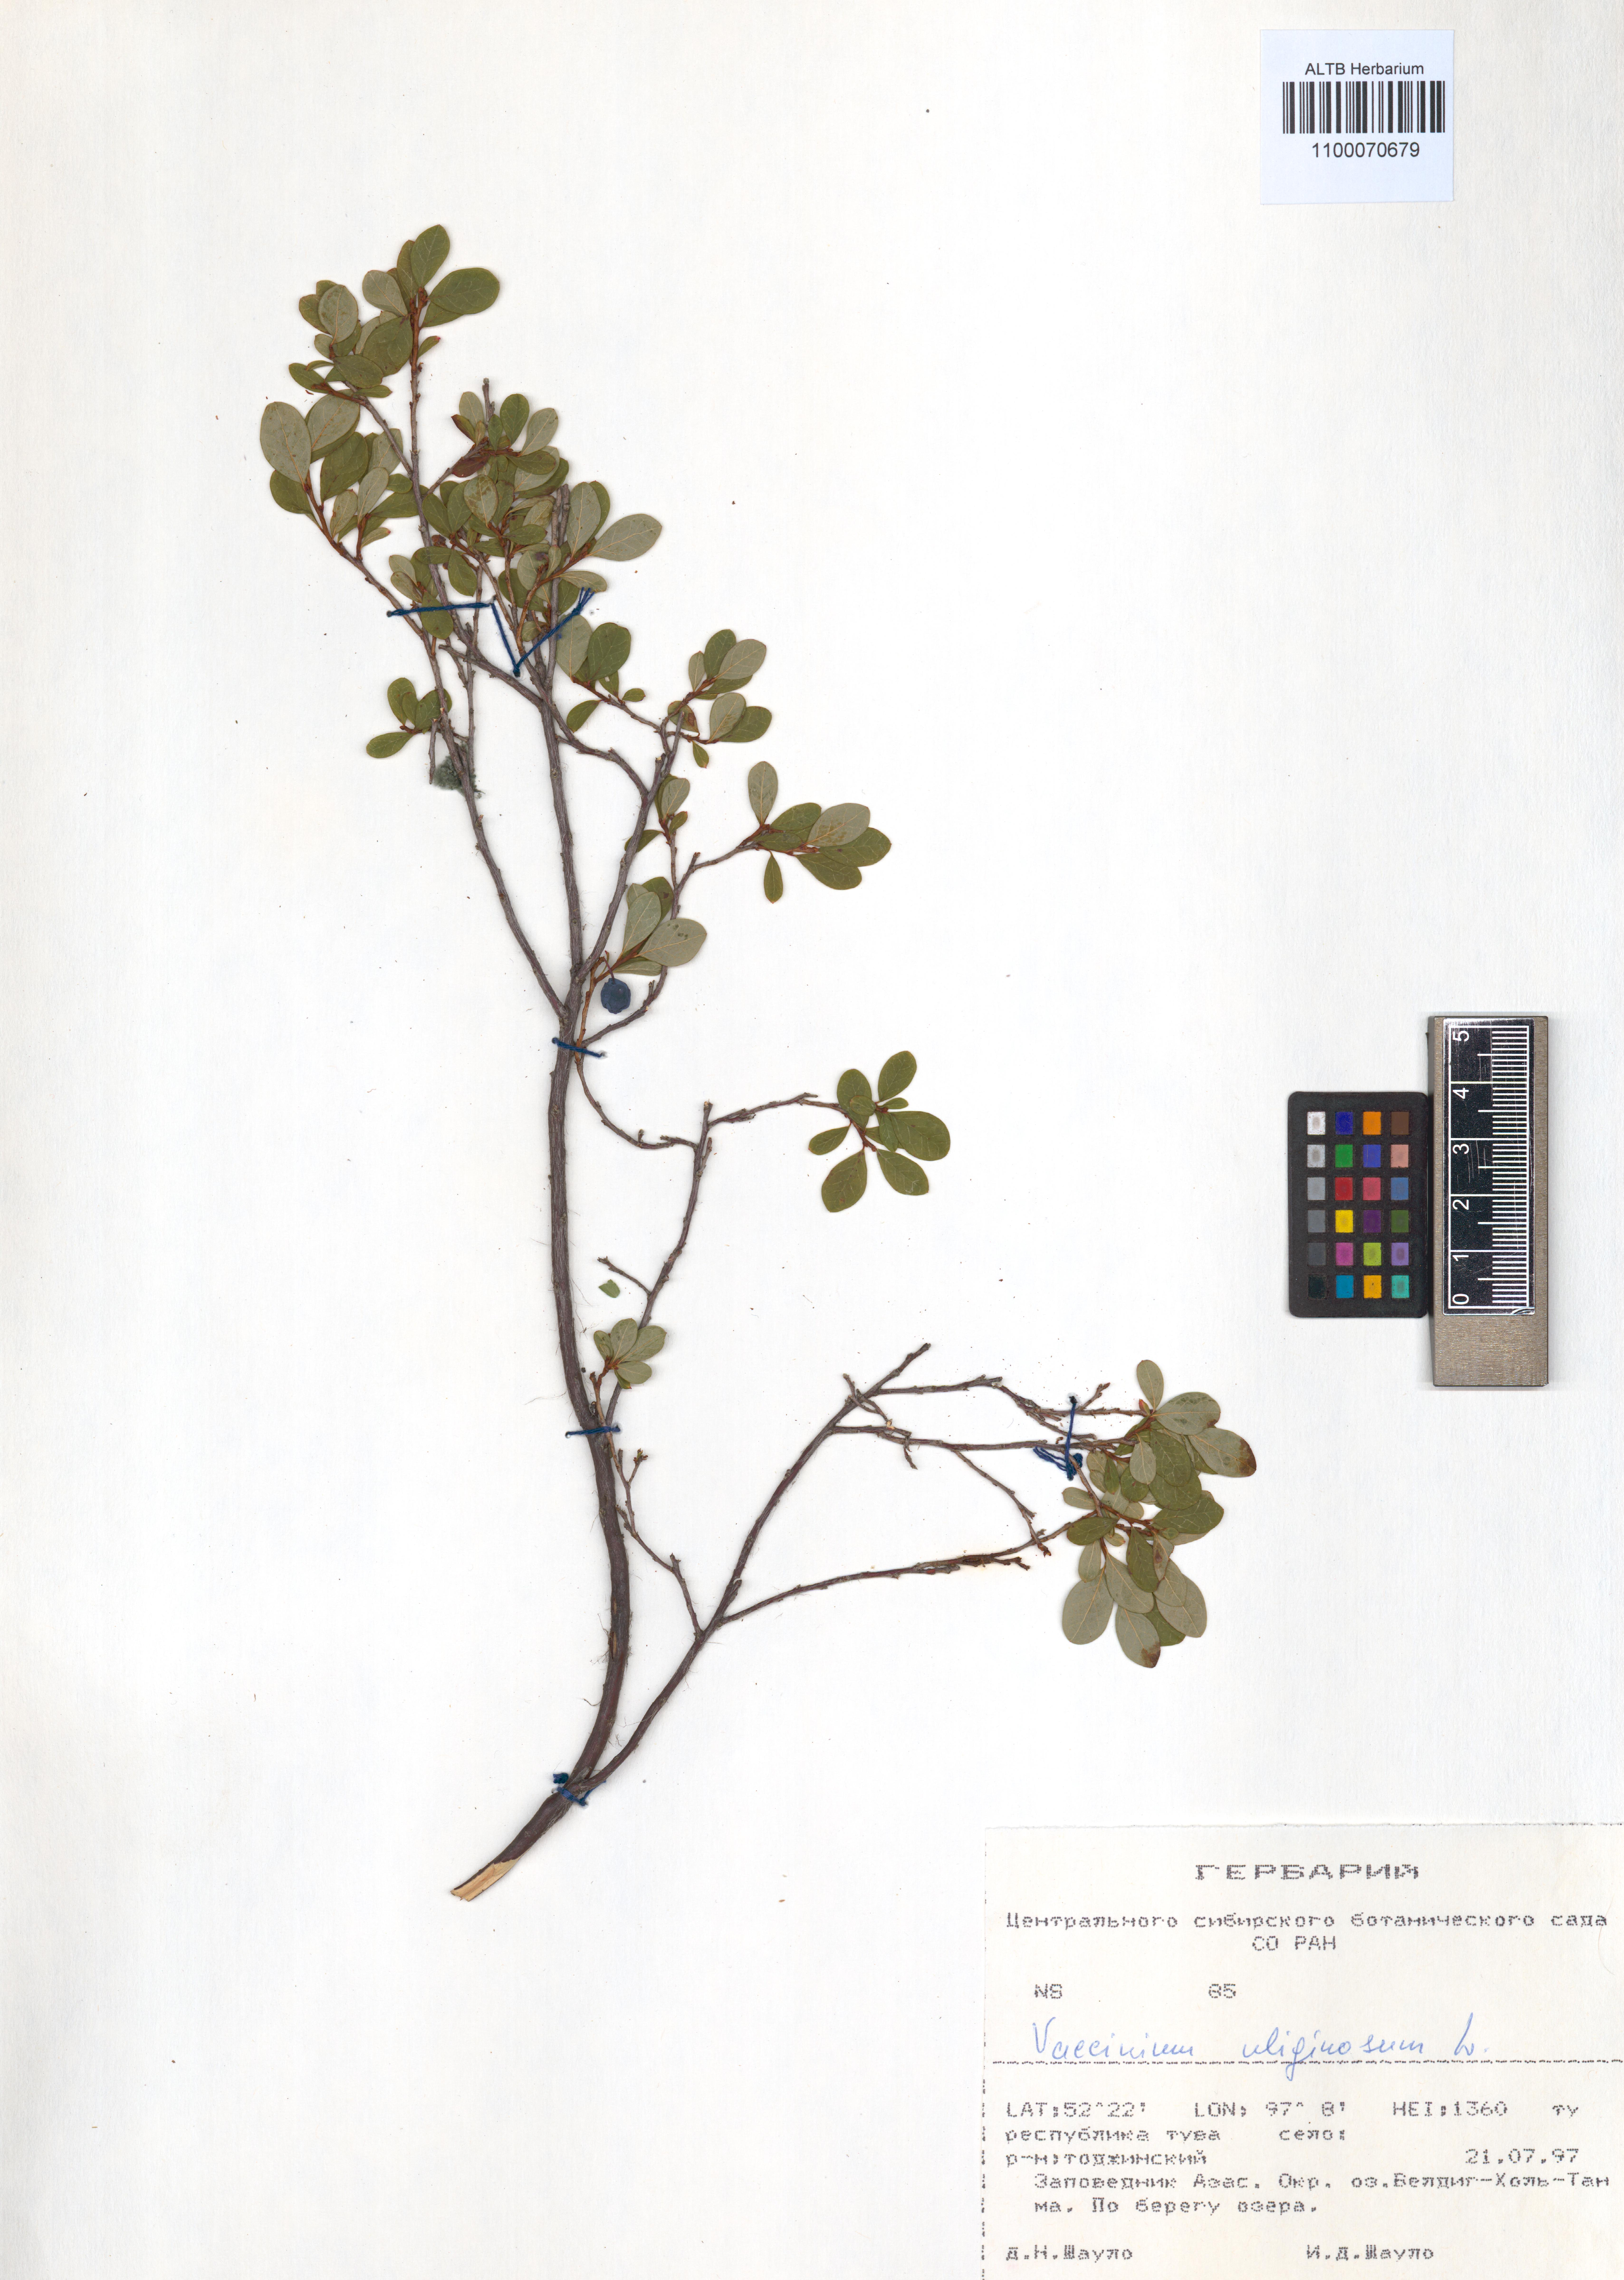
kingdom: Plantae
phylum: Tracheophyta
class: Magnoliopsida
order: Ericales
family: Ericaceae
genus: Vaccinium
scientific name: Vaccinium uliginosum
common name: Bog bilberry
